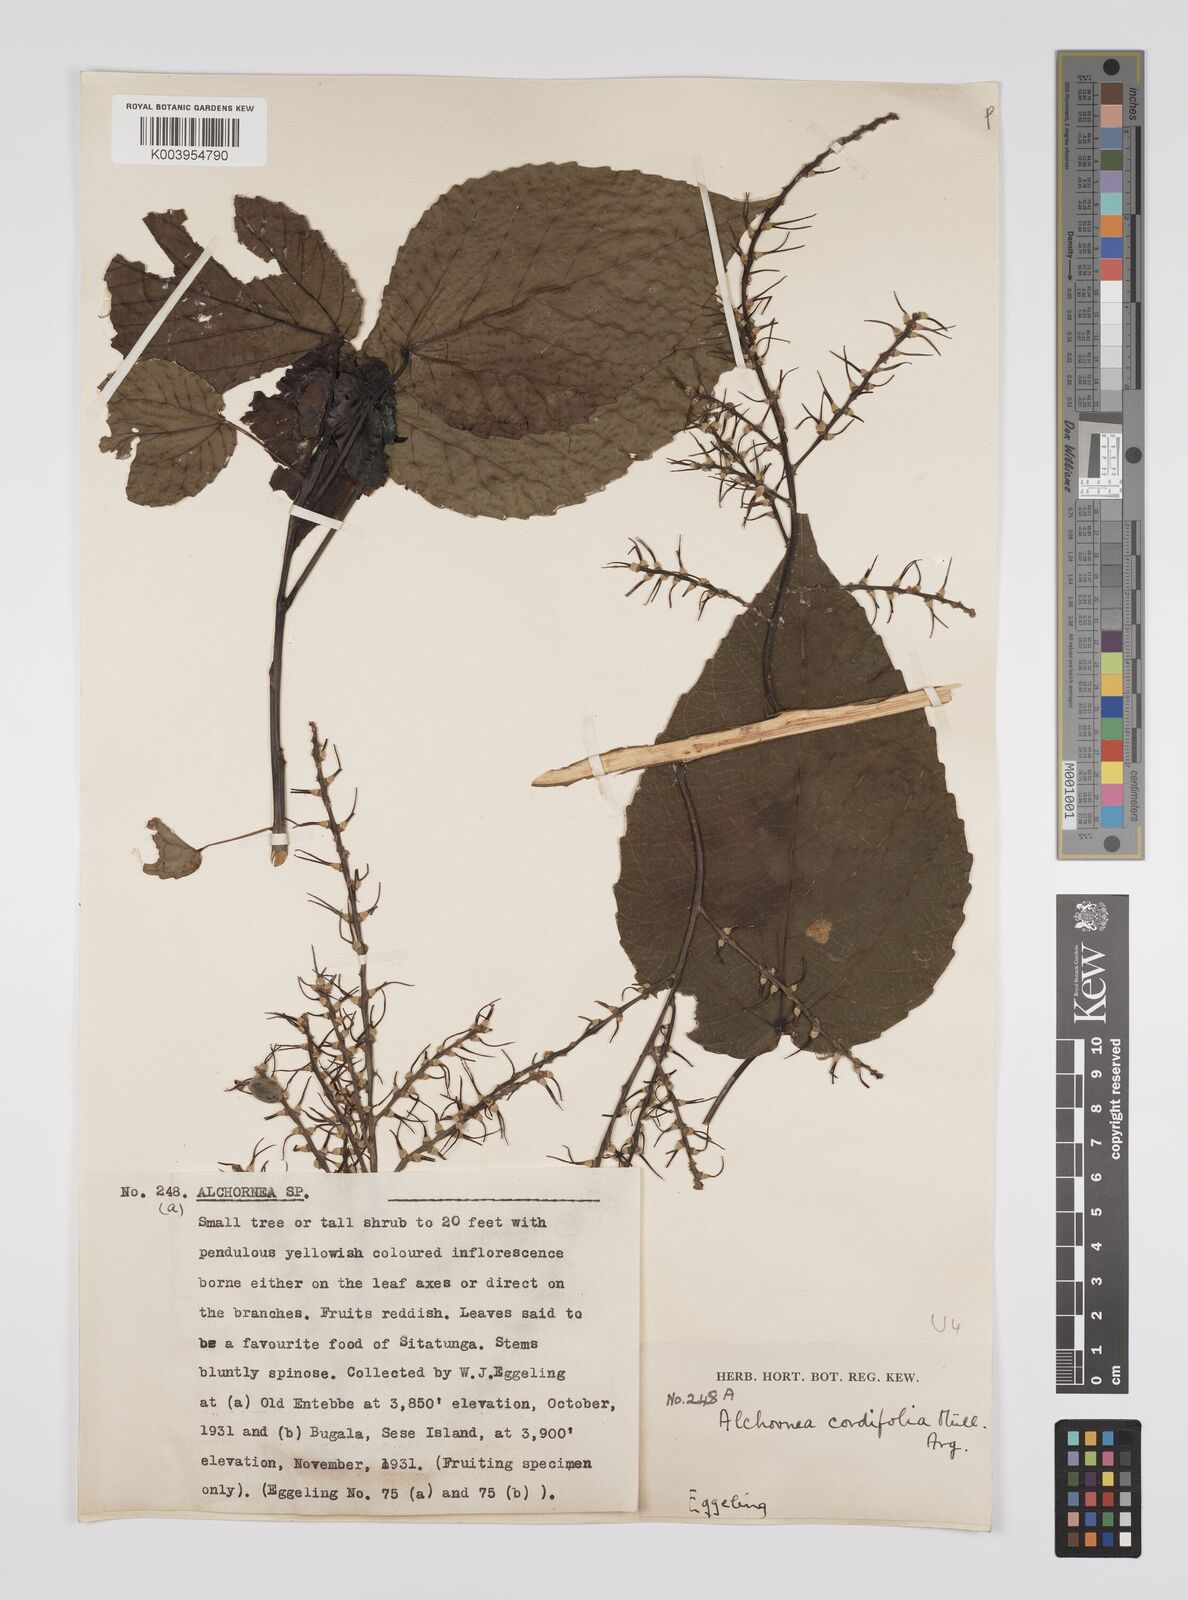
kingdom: Plantae
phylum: Tracheophyta
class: Magnoliopsida
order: Malpighiales
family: Euphorbiaceae
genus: Alchornea
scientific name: Alchornea cordifolia
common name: Christmasbush
